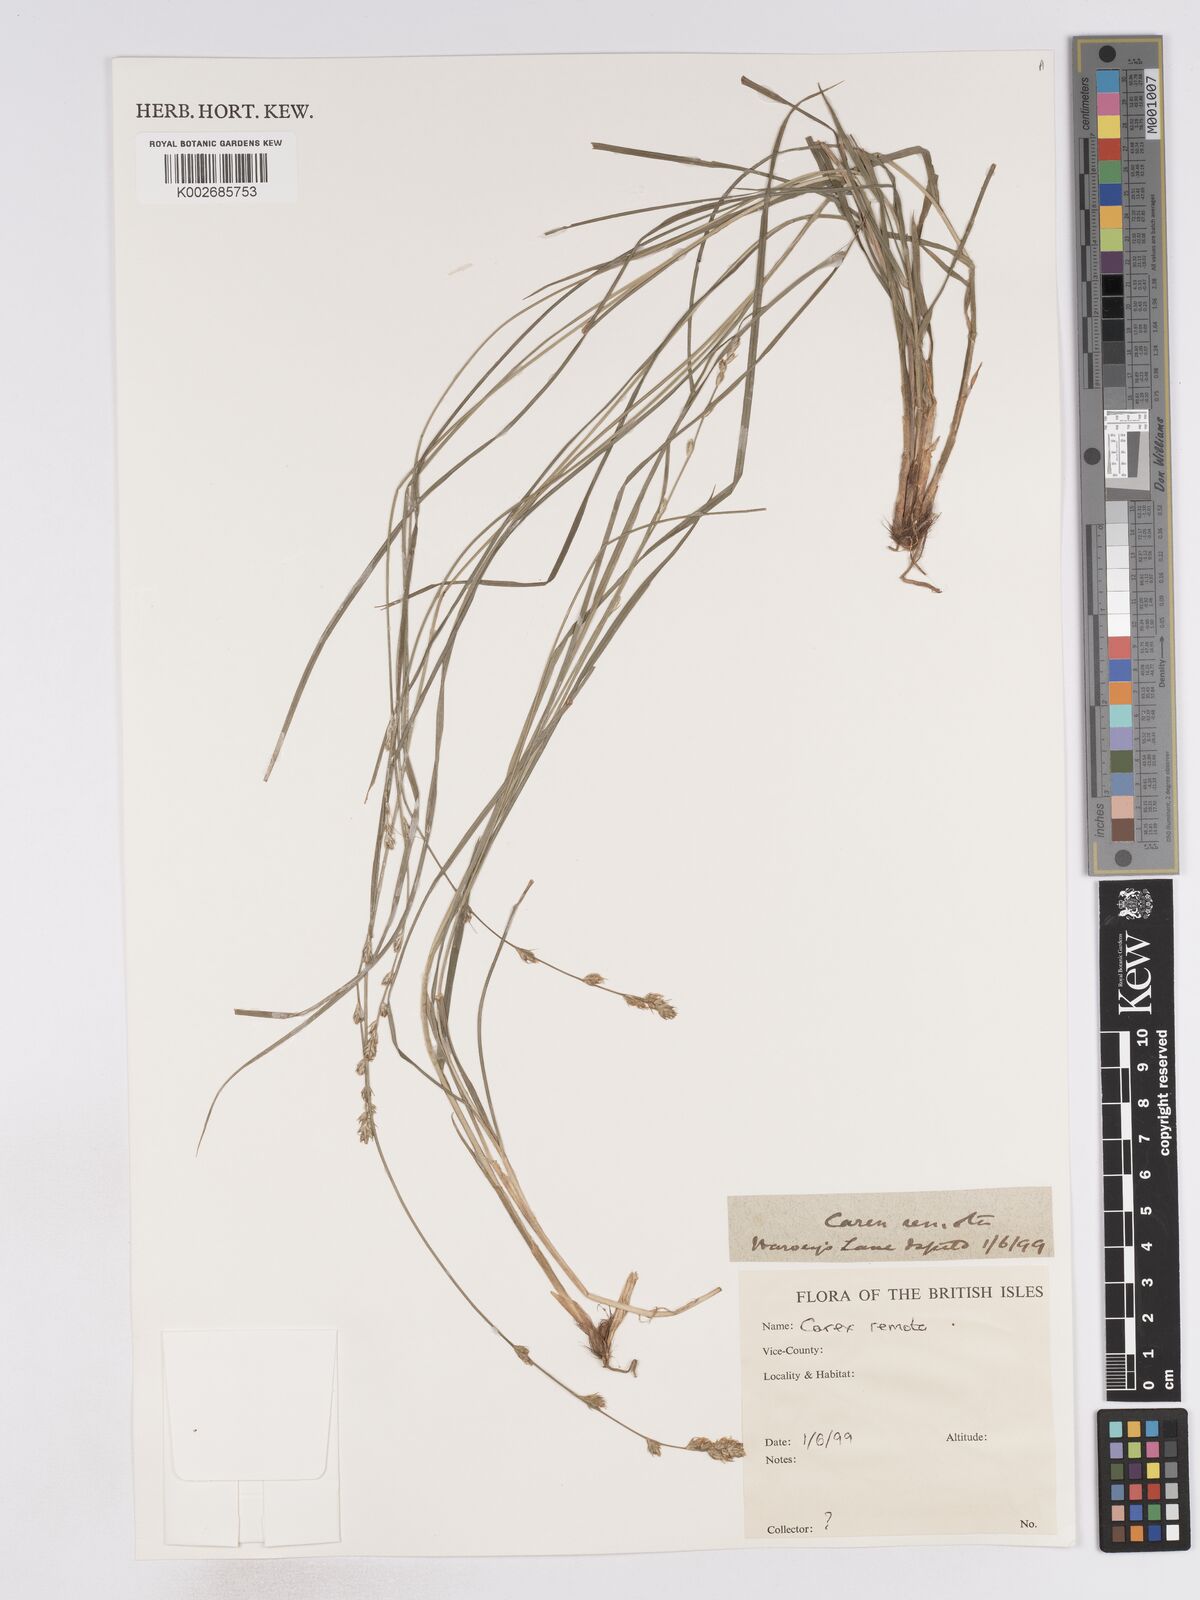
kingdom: Plantae
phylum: Tracheophyta
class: Liliopsida
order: Poales
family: Cyperaceae
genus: Carex
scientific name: Carex remota
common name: Remote sedge
